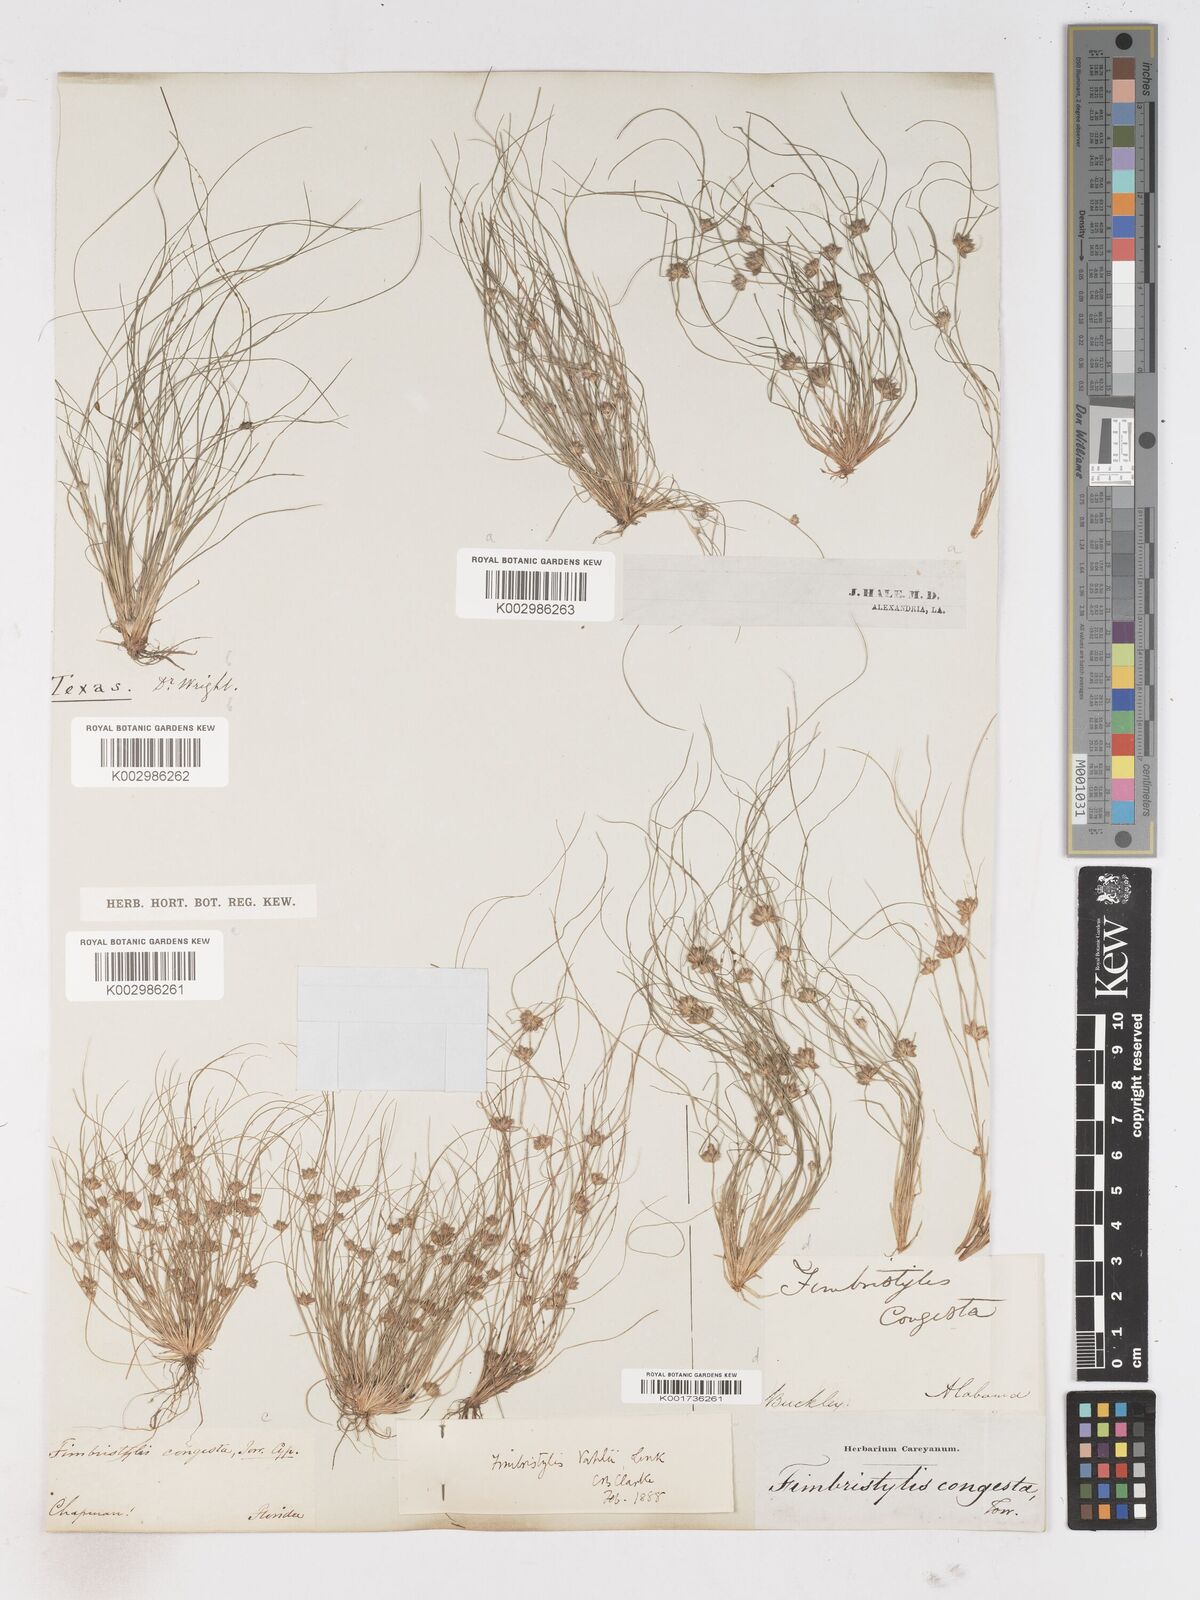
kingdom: Plantae
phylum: Tracheophyta
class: Liliopsida
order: Poales
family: Cyperaceae
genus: Fimbristylis
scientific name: Fimbristylis vahlii
